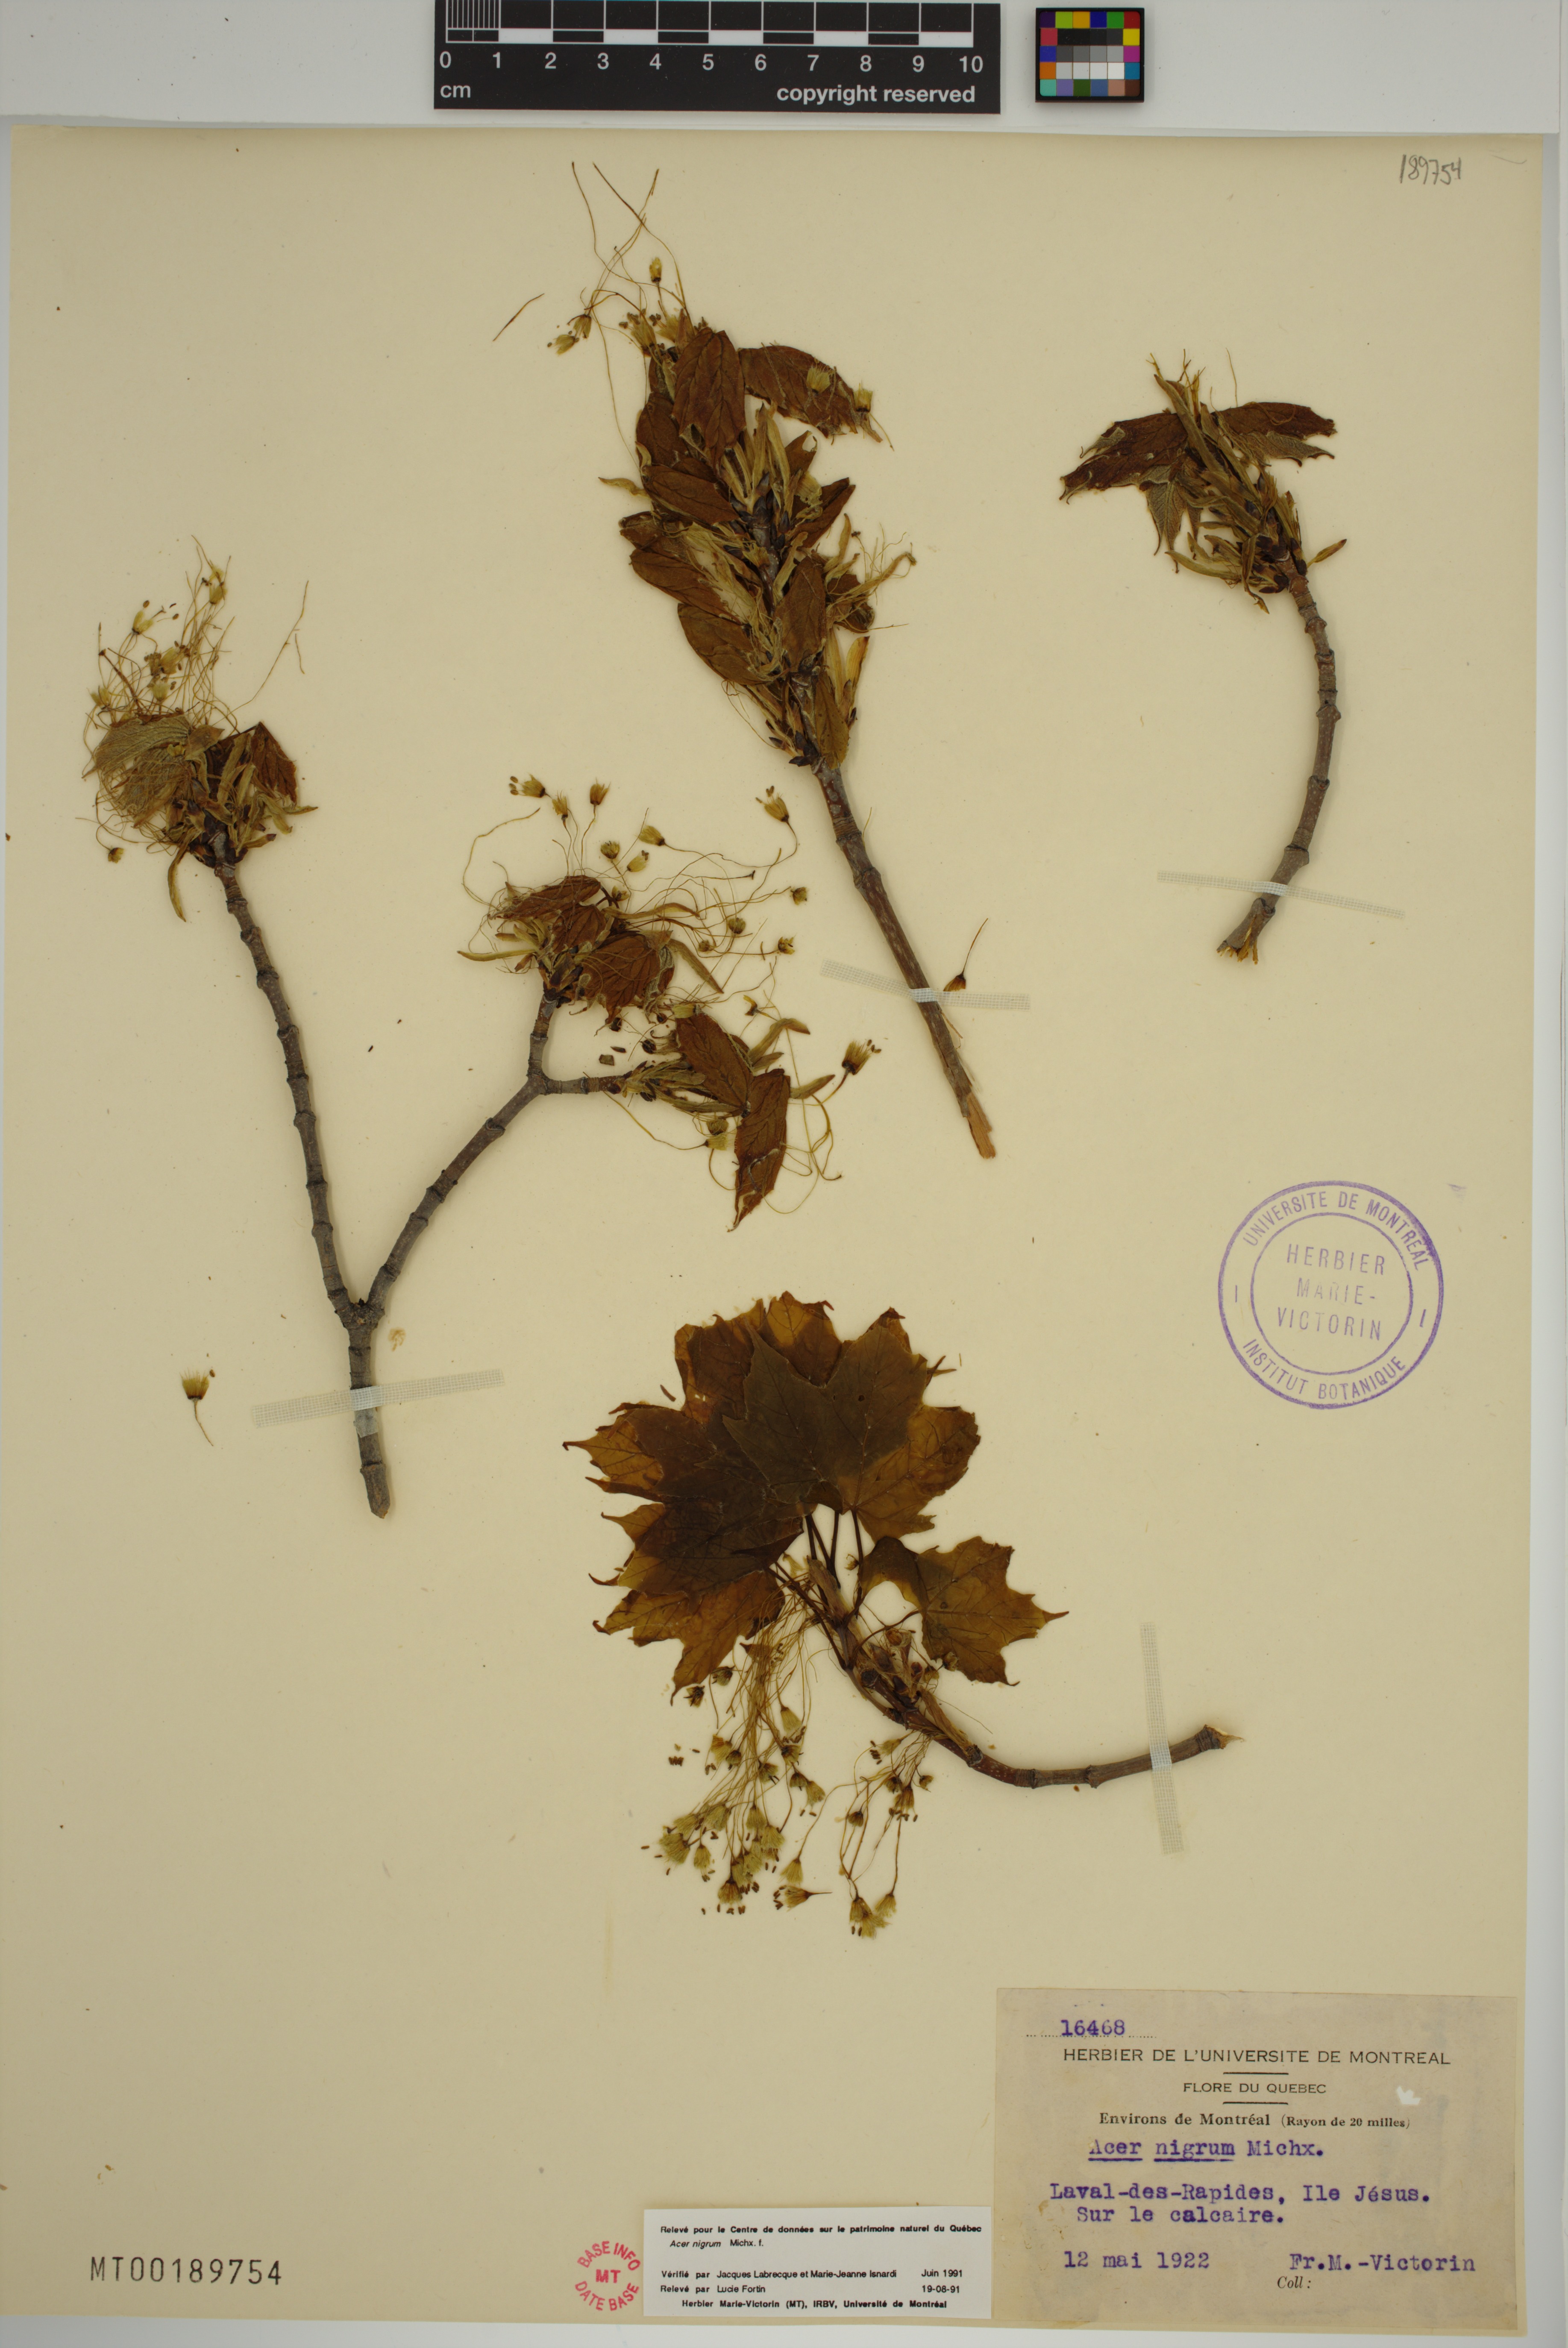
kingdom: Plantae
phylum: Tracheophyta
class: Magnoliopsida
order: Sapindales
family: Sapindaceae
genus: Acer
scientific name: Acer nigrum
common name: Black maple
